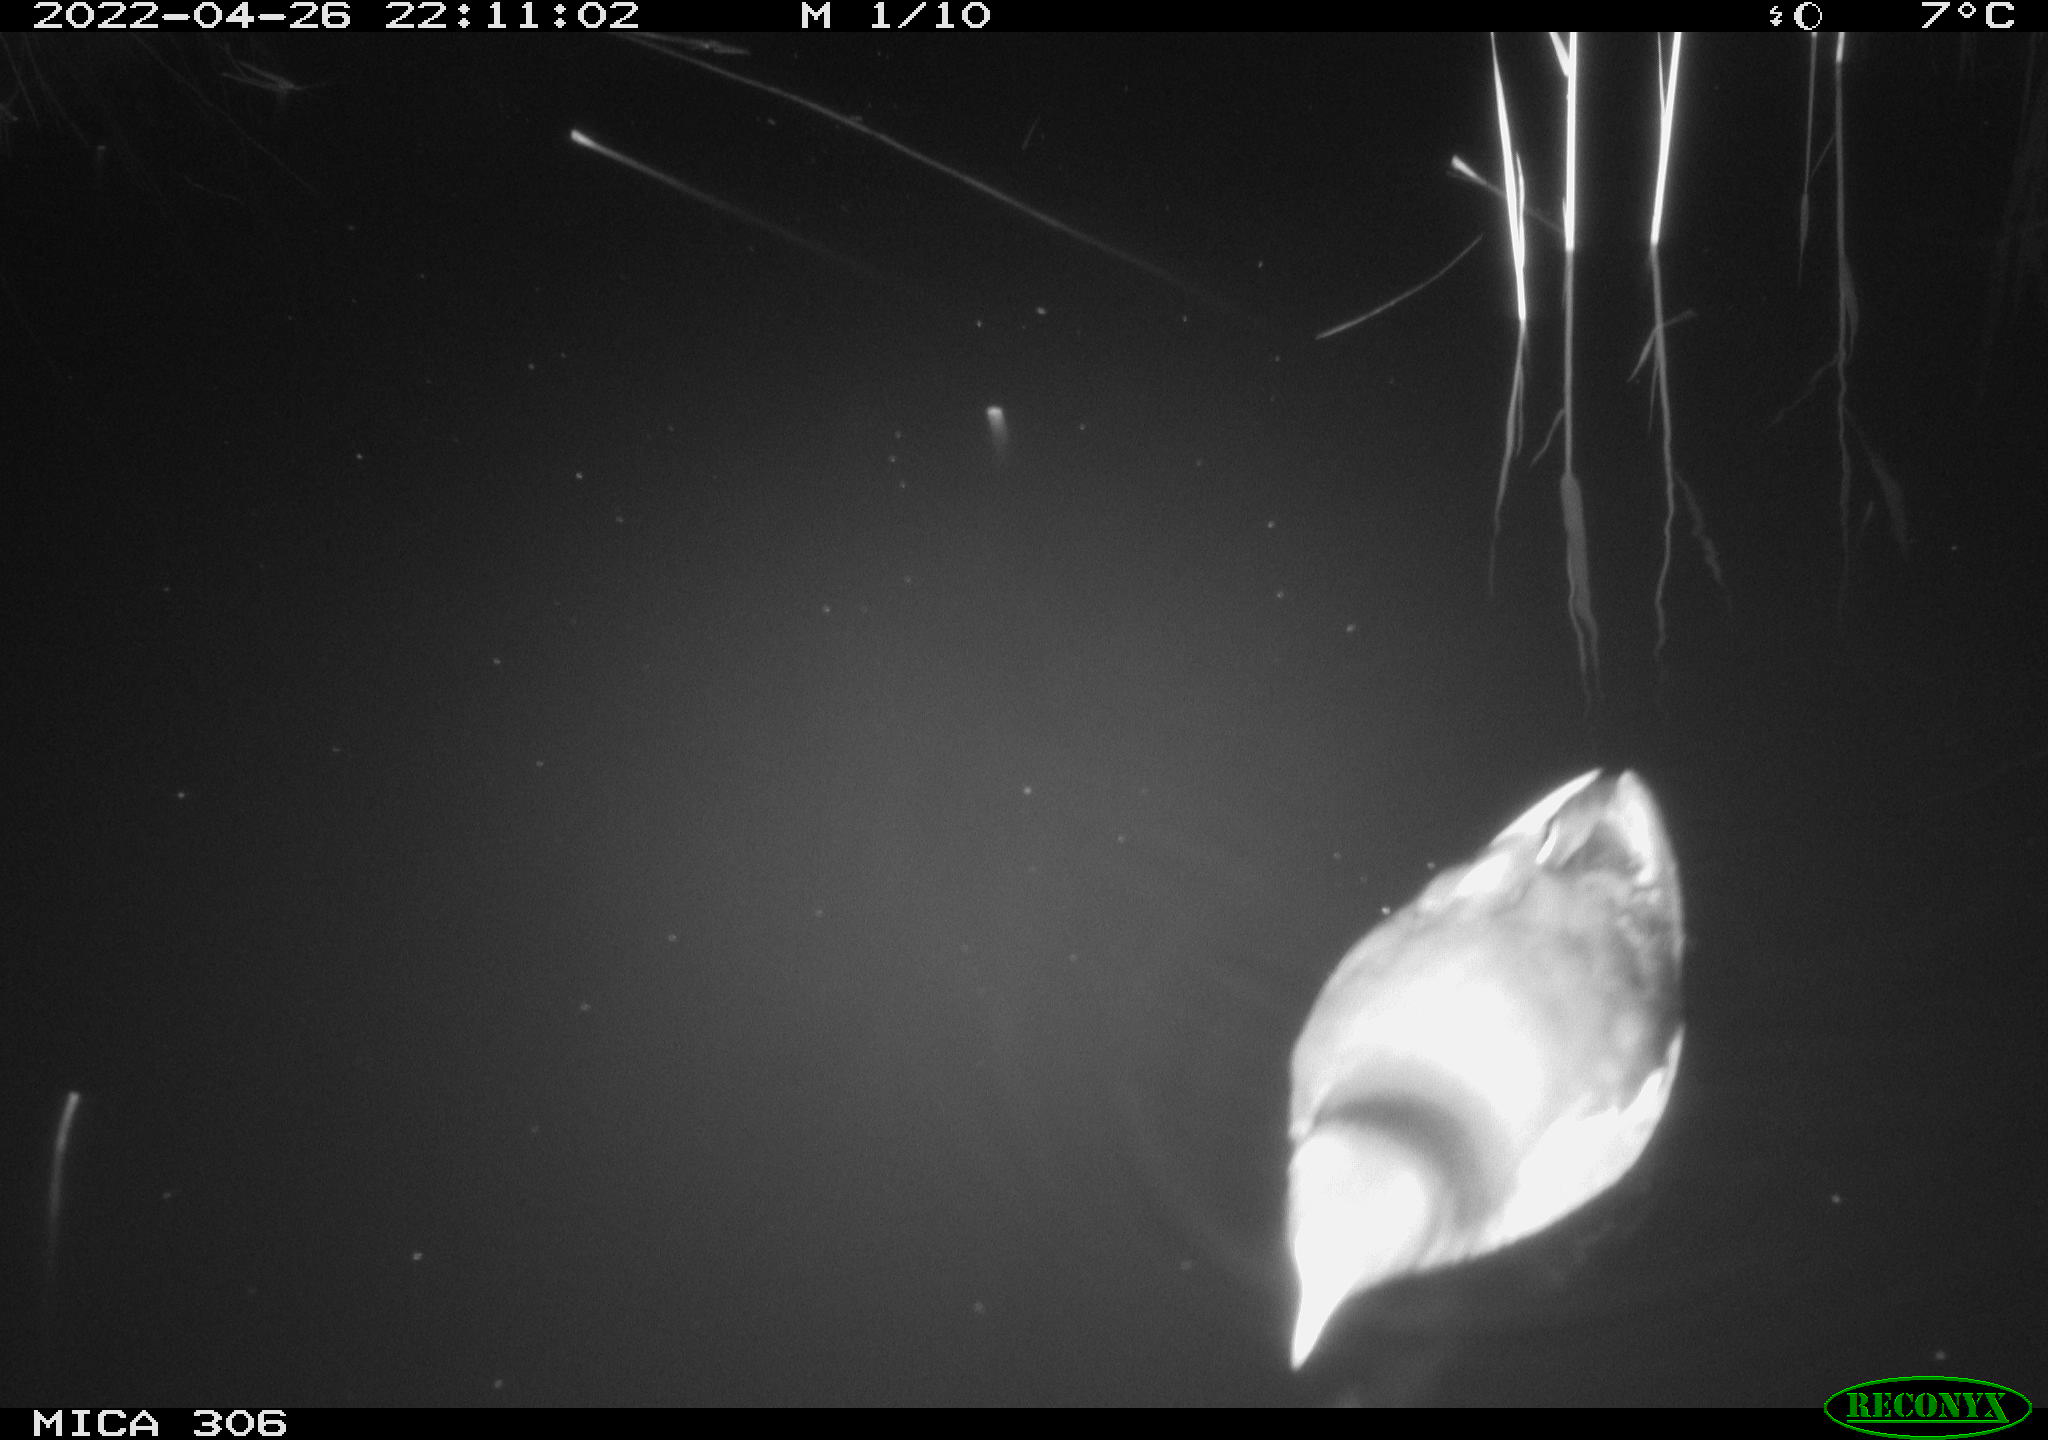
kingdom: Animalia
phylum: Chordata
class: Aves
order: Gruiformes
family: Rallidae
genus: Gallinula
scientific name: Gallinula chloropus
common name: Common moorhen
